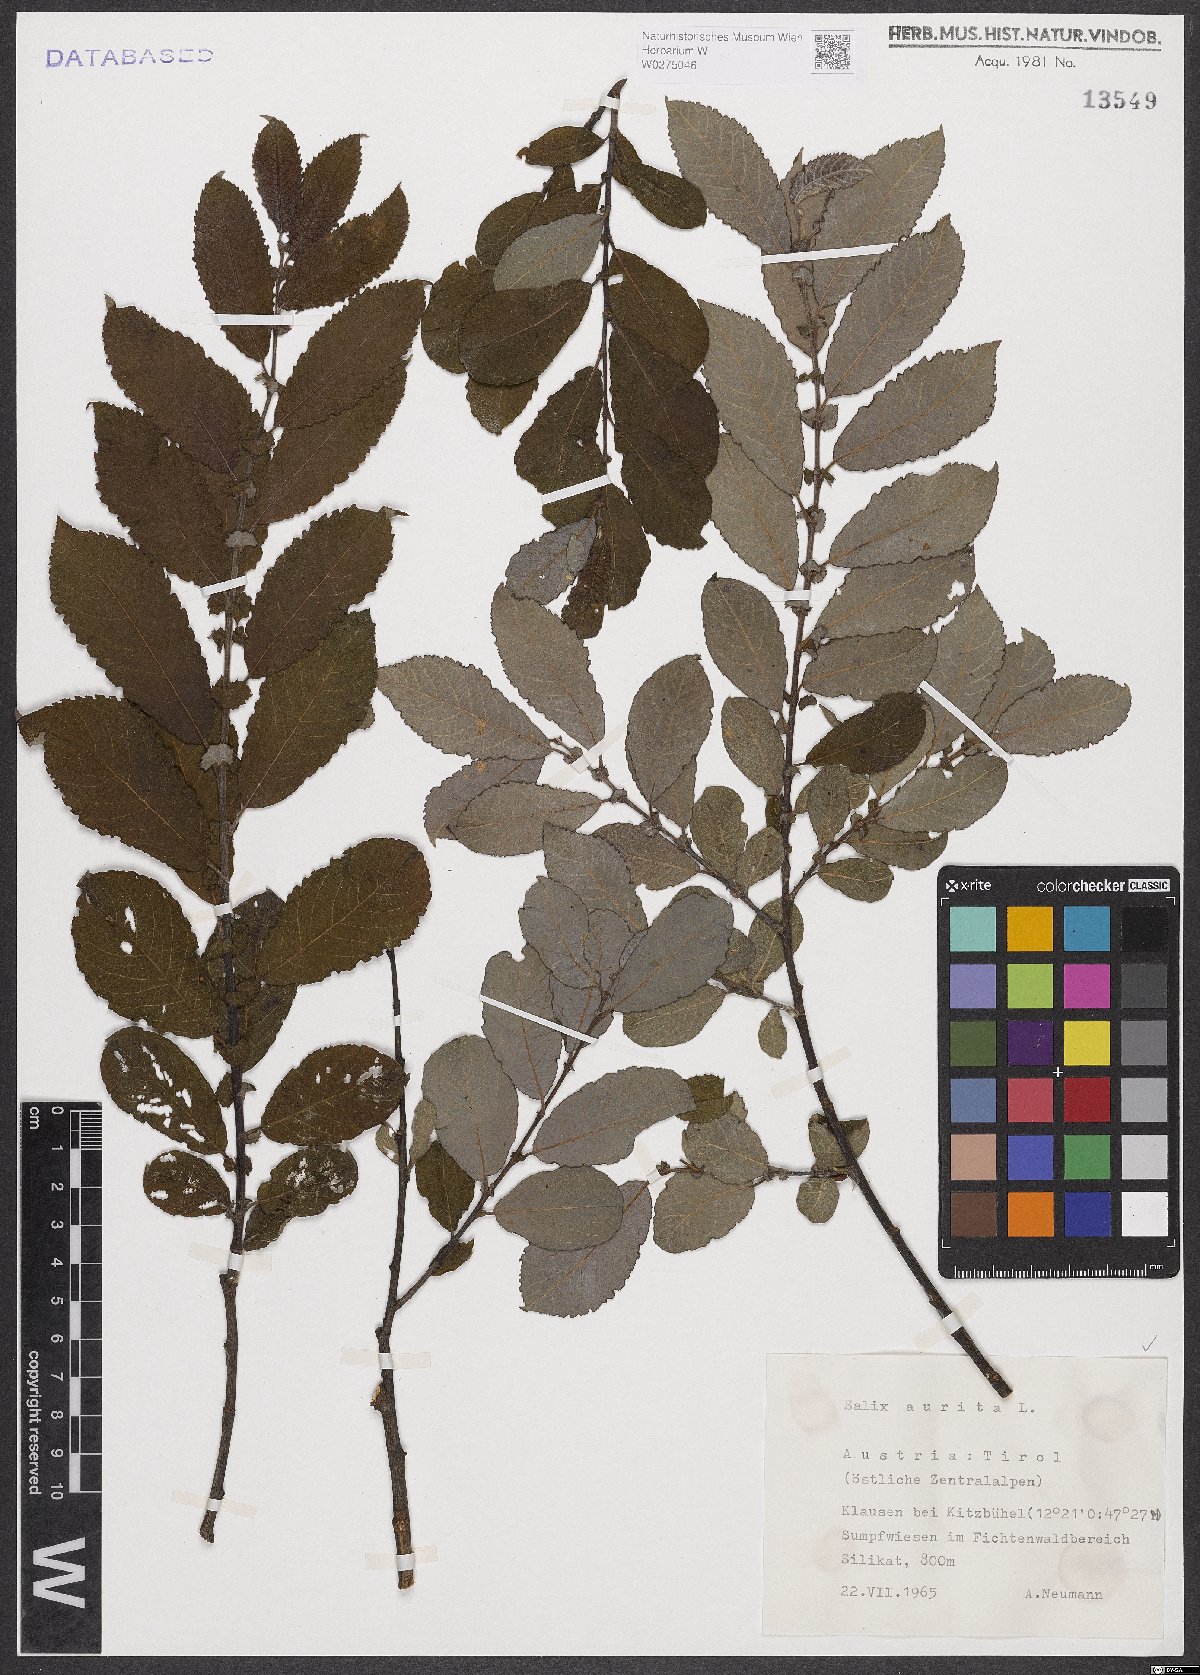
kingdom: Plantae
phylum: Tracheophyta
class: Magnoliopsida
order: Malpighiales
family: Salicaceae
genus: Salix
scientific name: Salix aurita
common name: Eared willow
